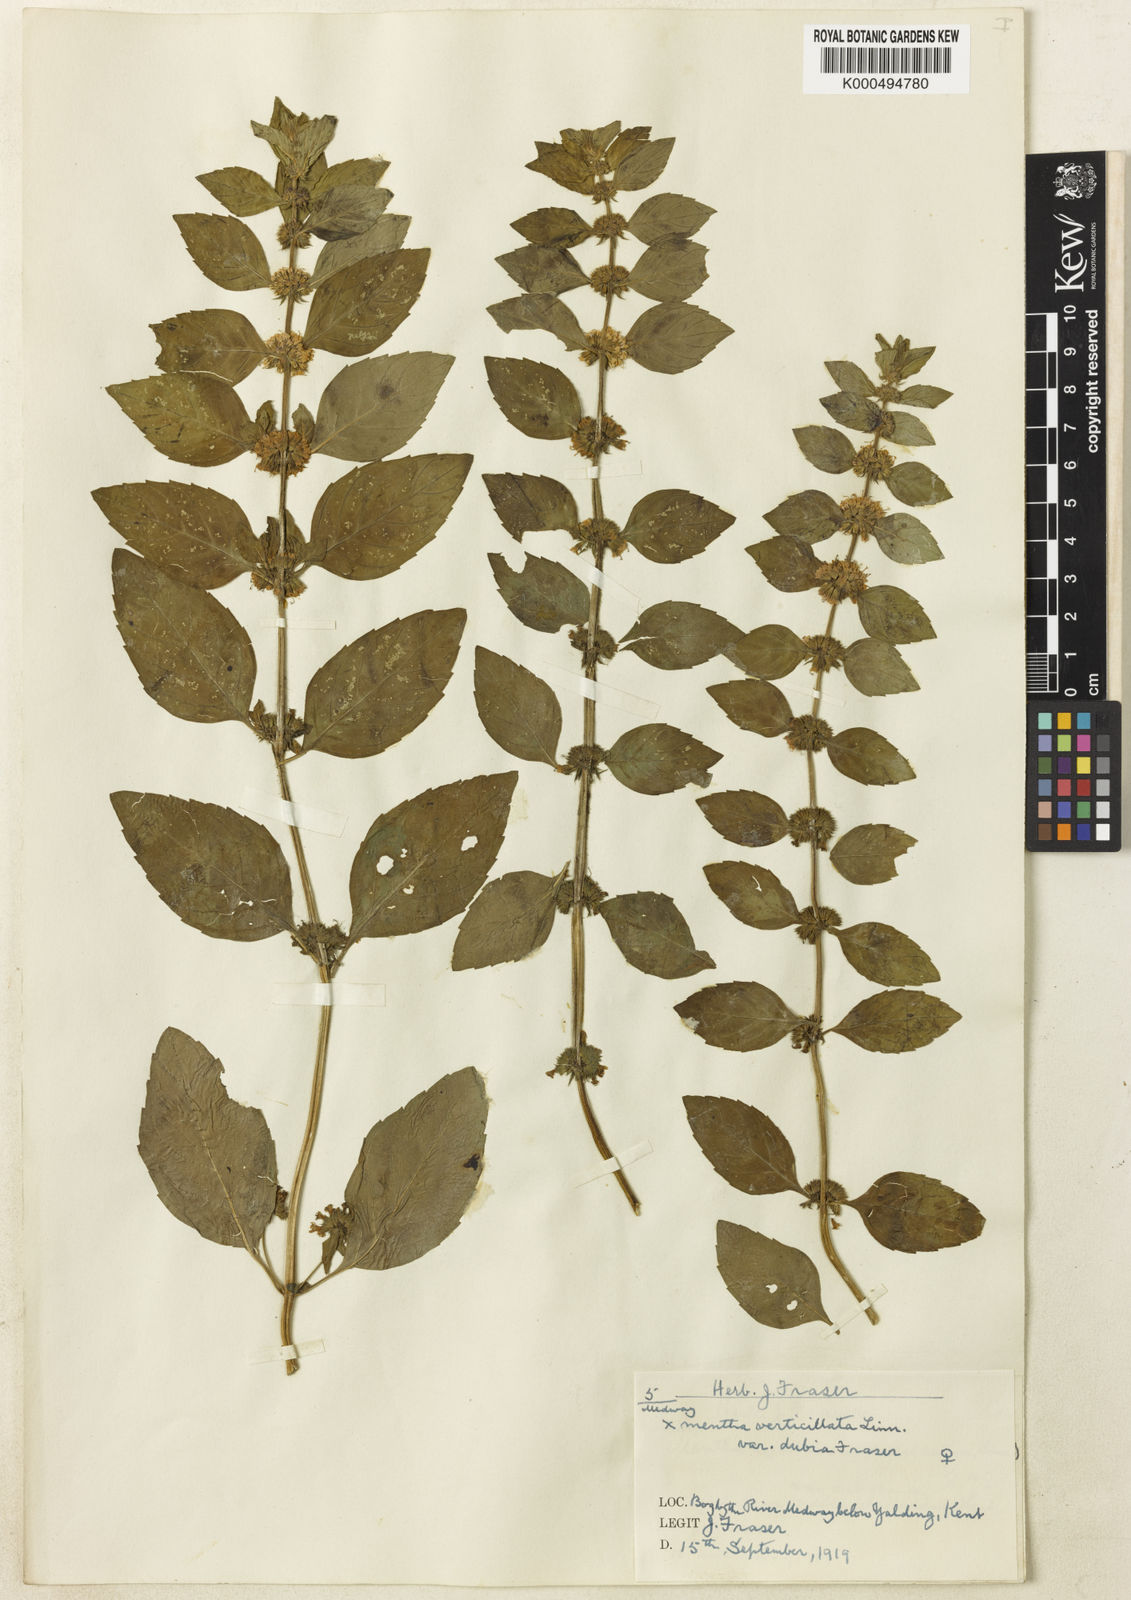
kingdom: Plantae
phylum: Tracheophyta
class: Magnoliopsida
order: Lamiales
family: Lamiaceae
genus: Mentha
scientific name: Mentha verticillata
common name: Mint
